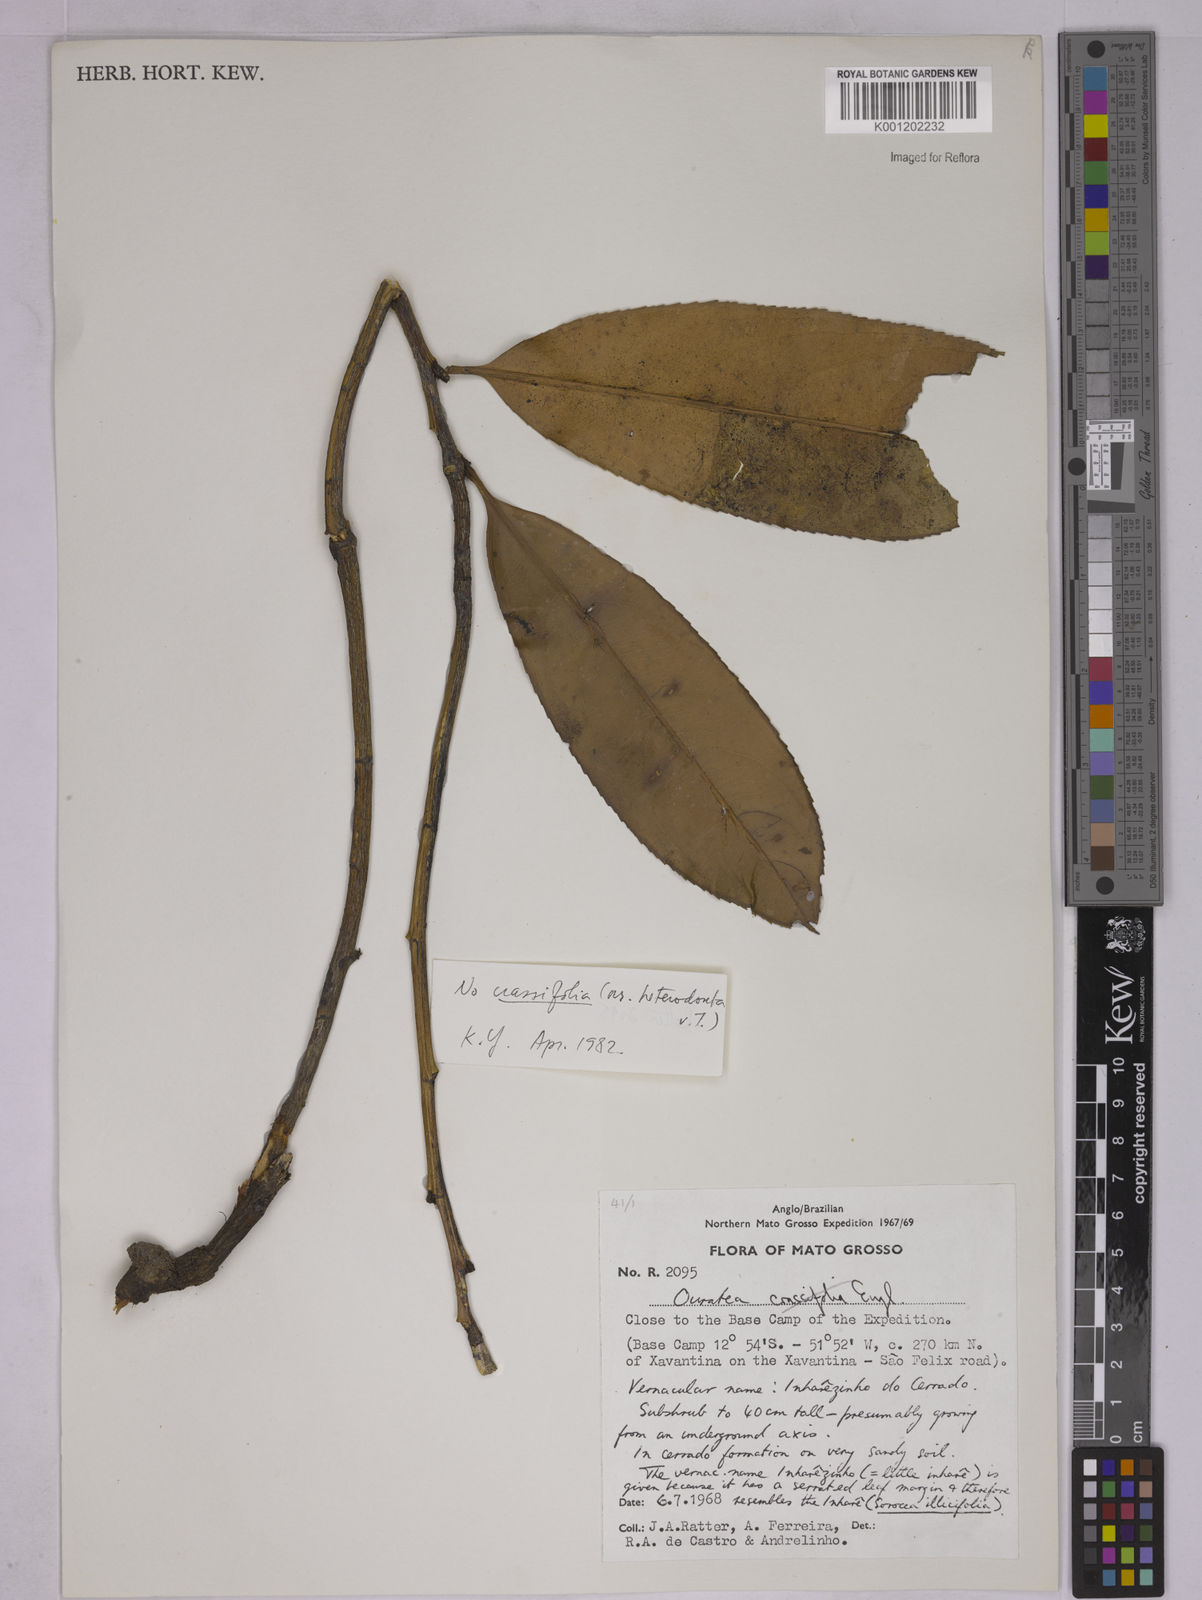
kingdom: Plantae
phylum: Tracheophyta
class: Magnoliopsida
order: Malpighiales
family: Ochnaceae
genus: Ouratea
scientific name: Ouratea
